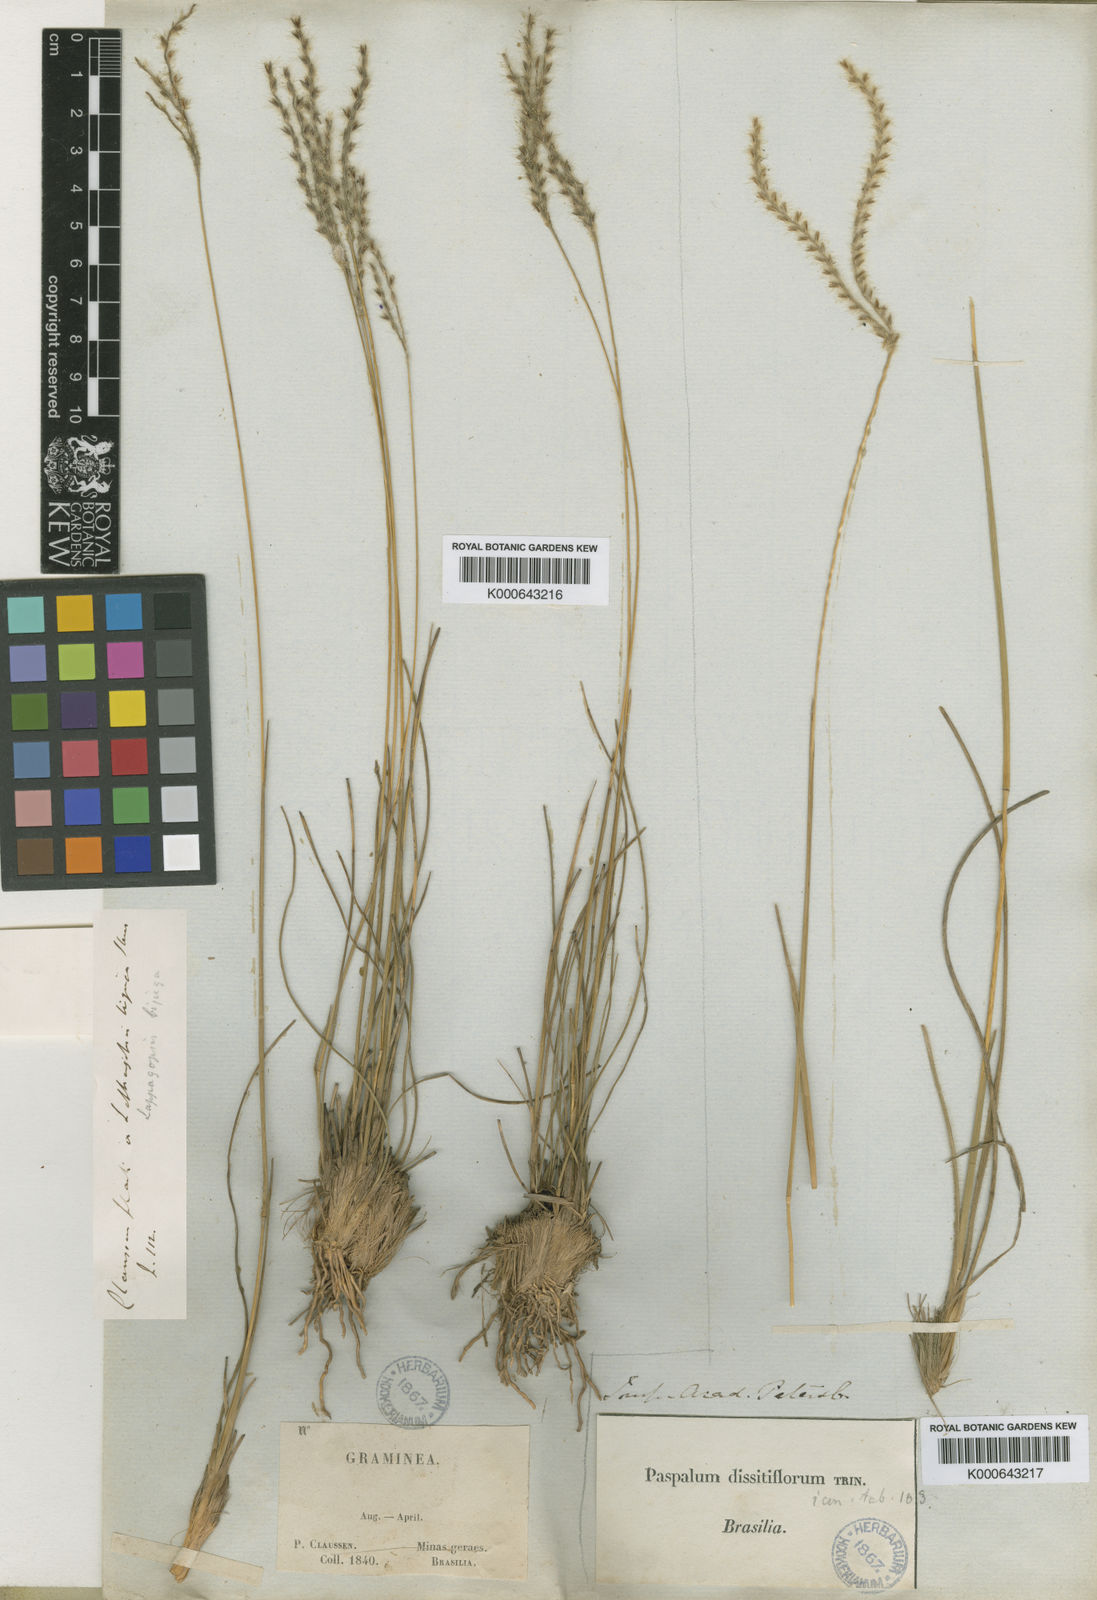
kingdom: Plantae
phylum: Tracheophyta
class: Liliopsida
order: Poales
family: Poaceae
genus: Axonopus
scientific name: Axonopus brasiliensis
